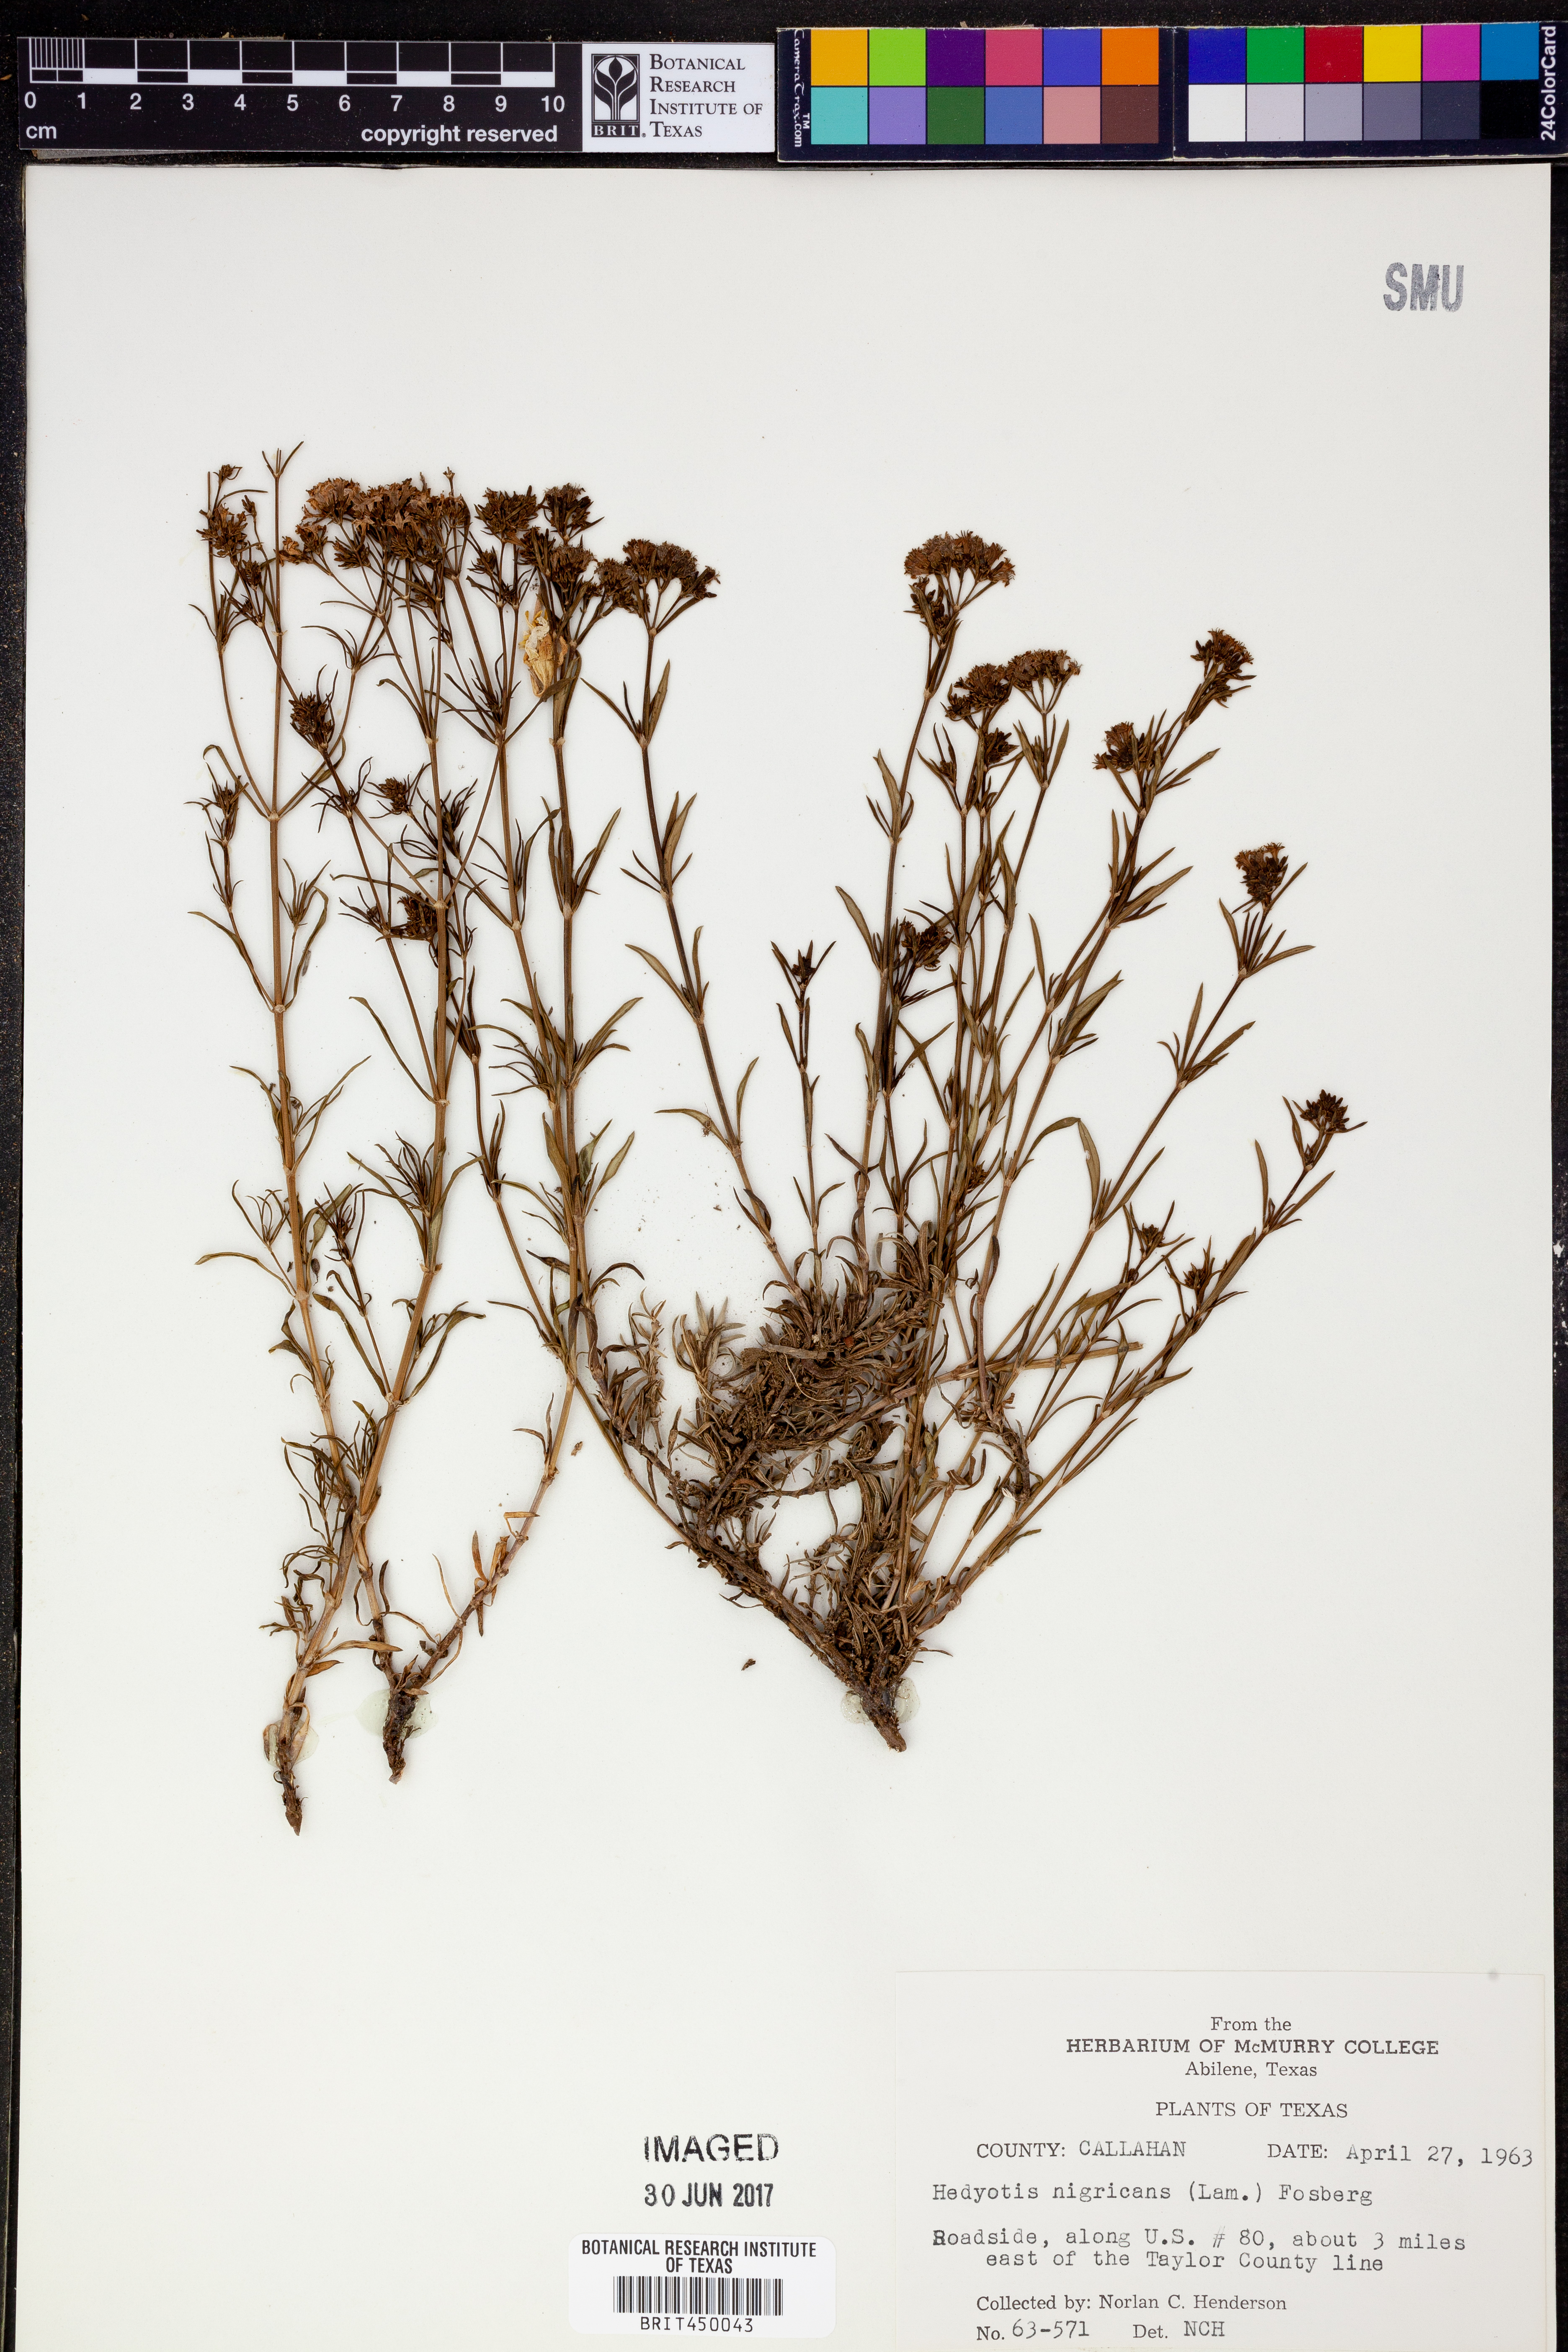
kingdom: Plantae
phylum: Tracheophyta
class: Magnoliopsida
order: Gentianales
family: Rubiaceae
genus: Stenaria
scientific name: Stenaria nigricans
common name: Diamondflowers
